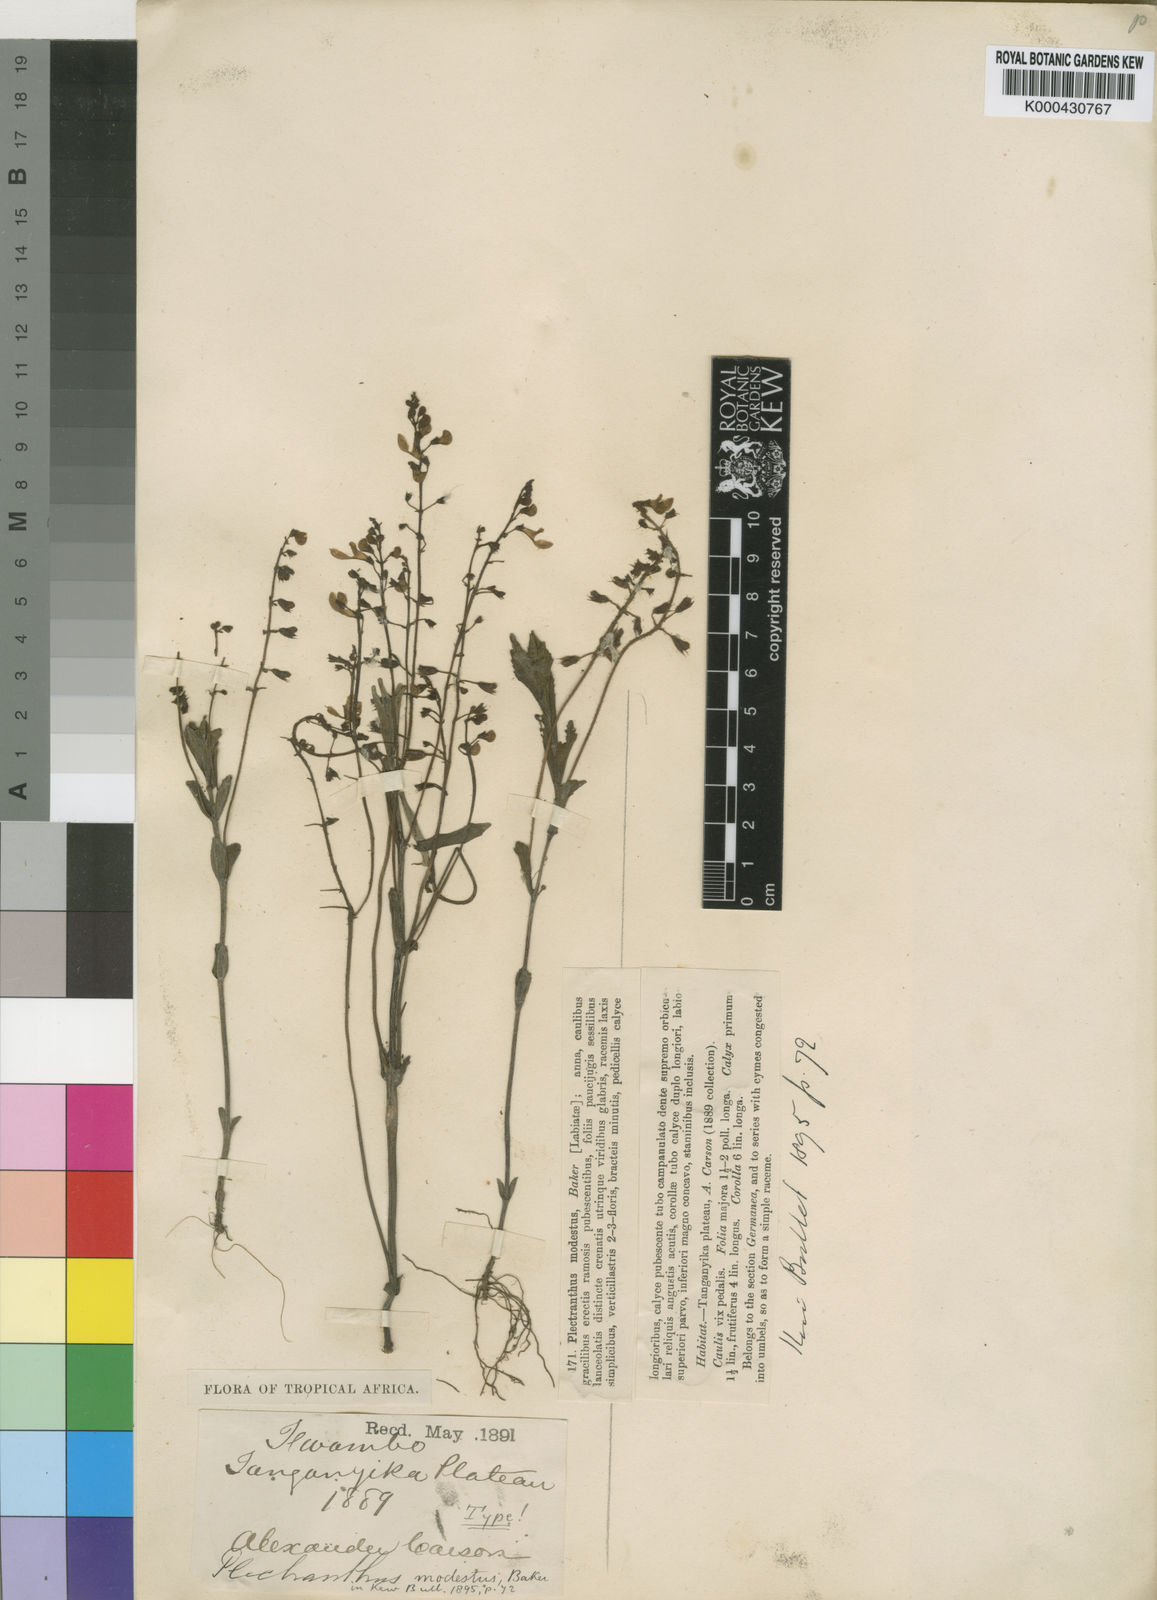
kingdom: Plantae
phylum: Tracheophyta
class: Magnoliopsida
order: Lamiales
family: Lamiaceae
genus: Coleus
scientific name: Coleus modestus
